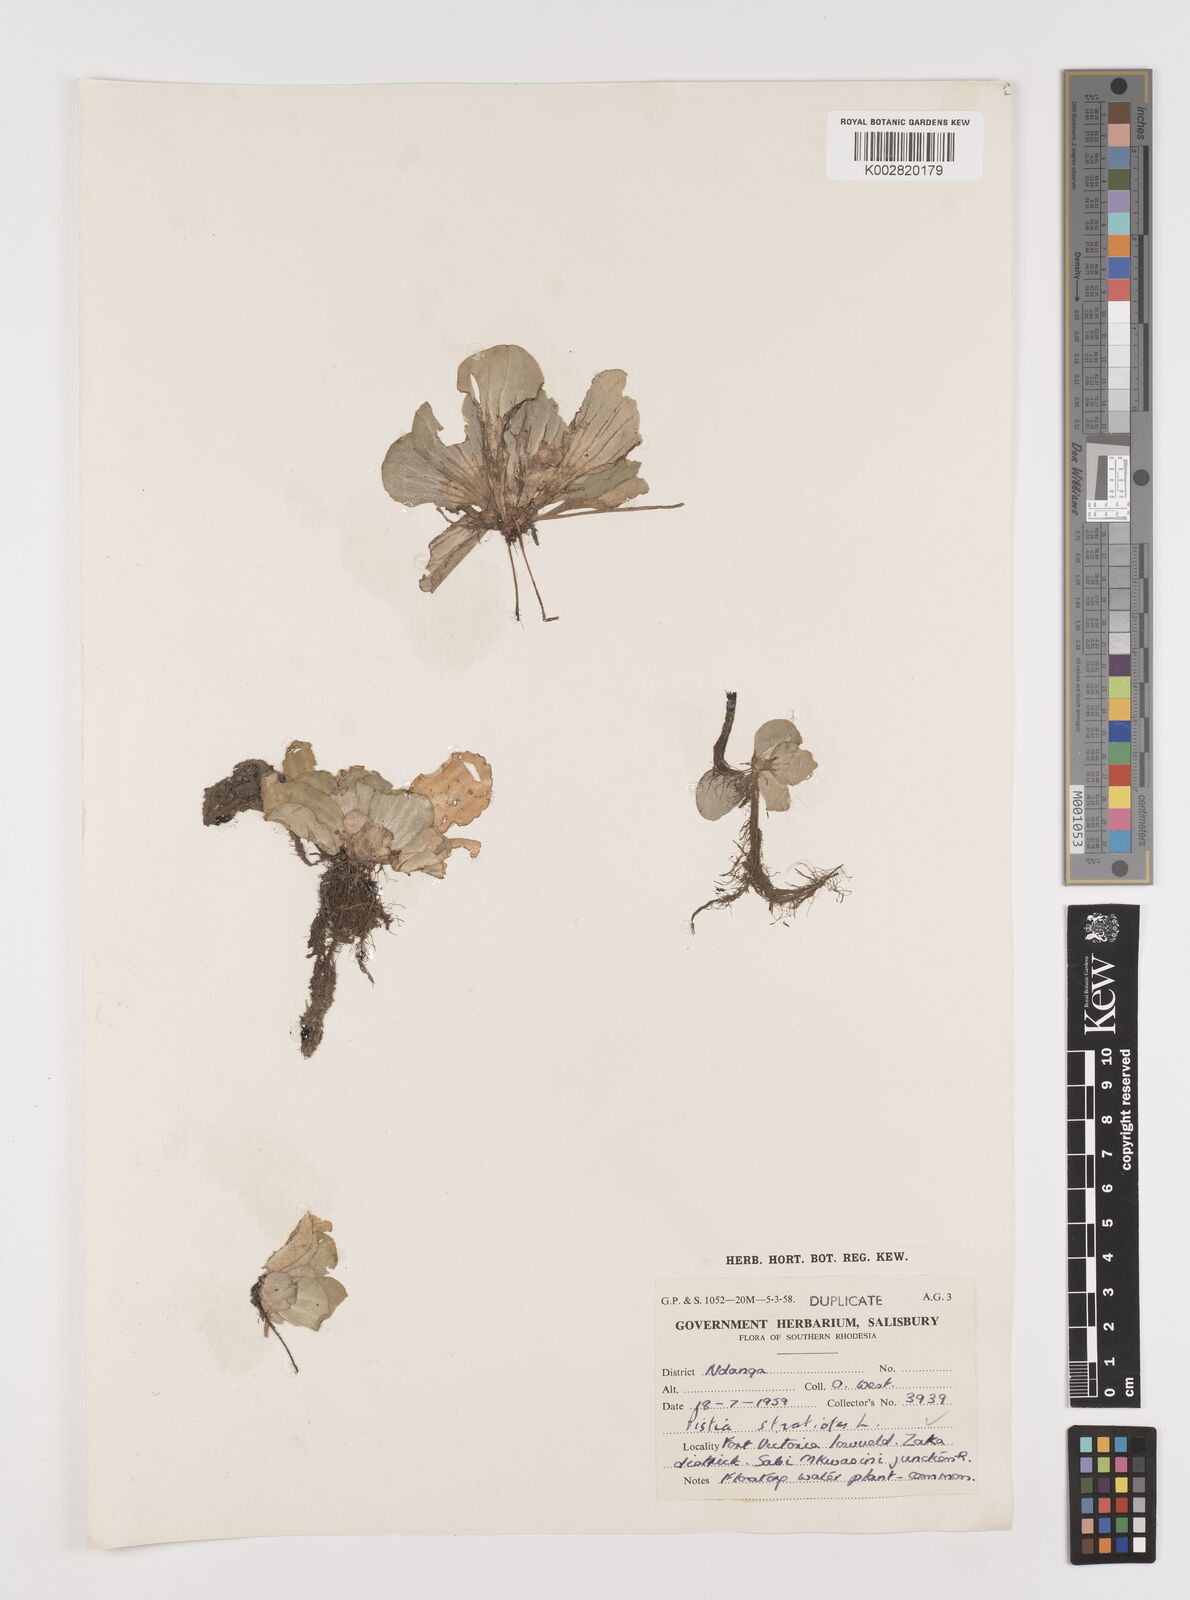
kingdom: Plantae
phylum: Tracheophyta
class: Liliopsida
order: Alismatales
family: Araceae
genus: Pistia
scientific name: Pistia stratiotes
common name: Water lettuce
